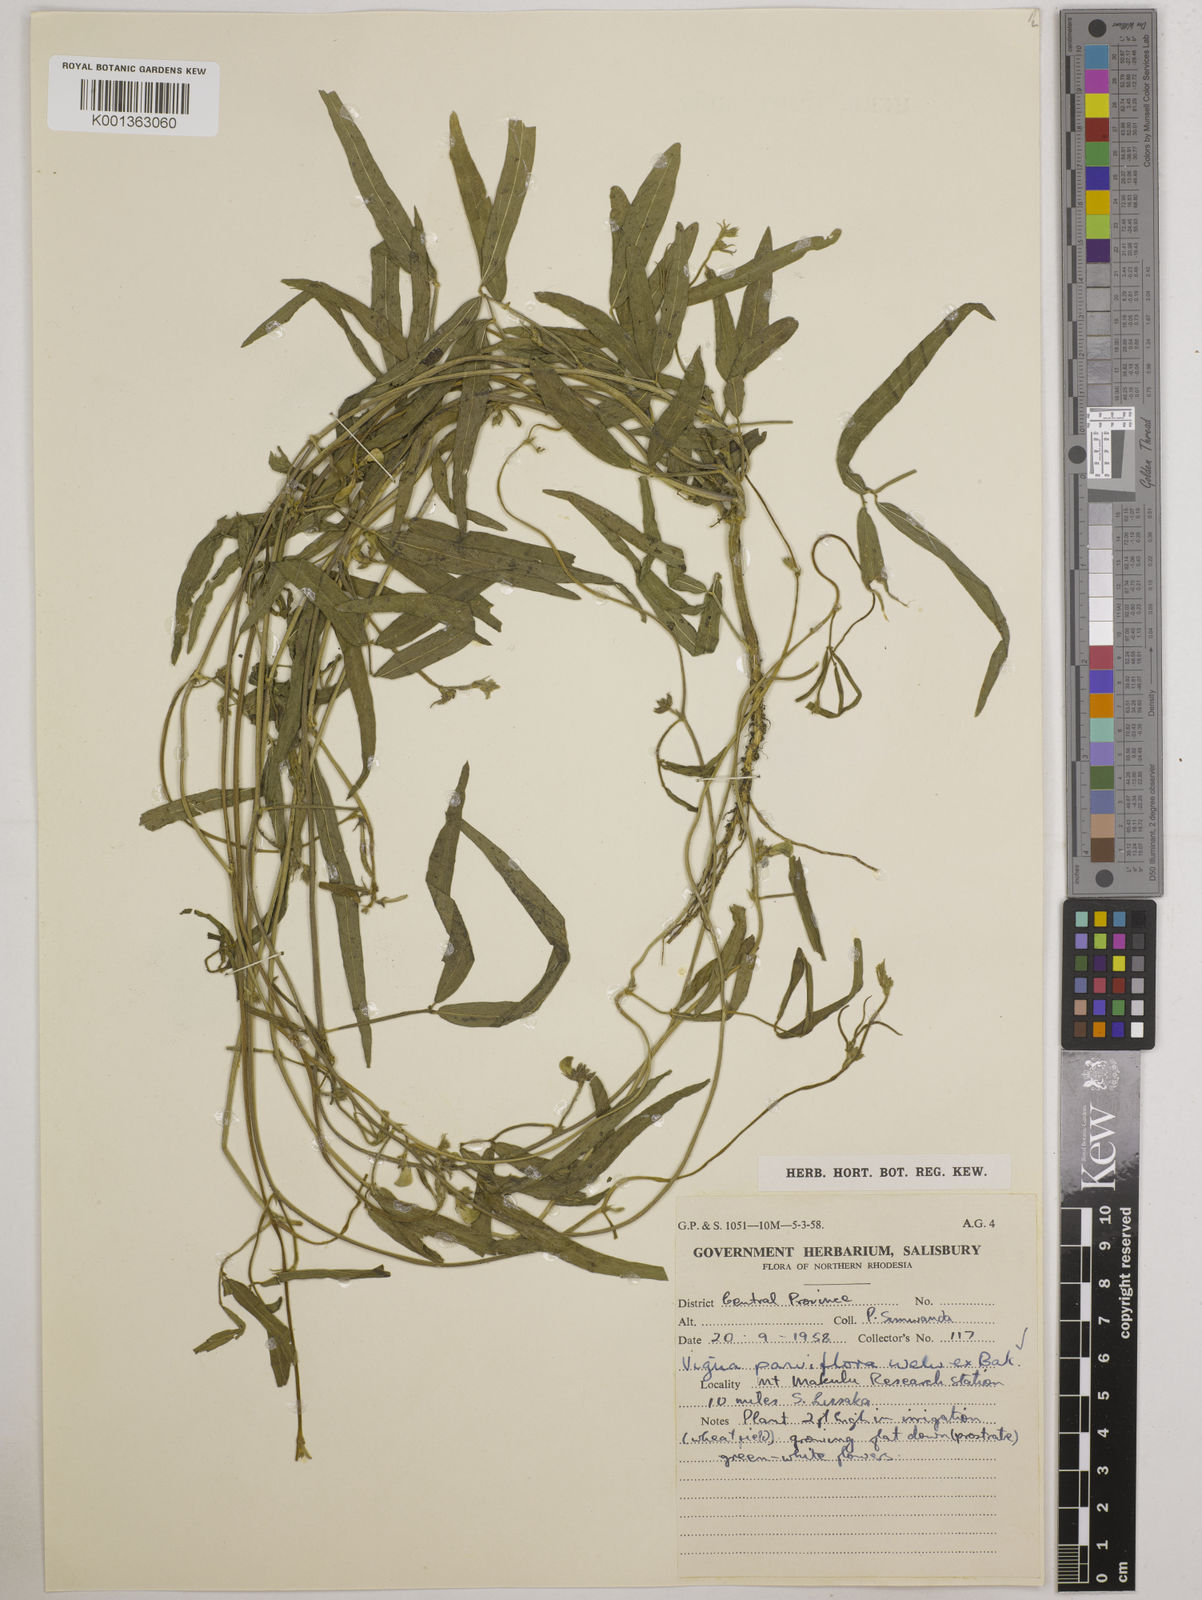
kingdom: Plantae
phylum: Tracheophyta
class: Magnoliopsida
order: Fabales
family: Fabaceae
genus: Vigna
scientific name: Vigna
